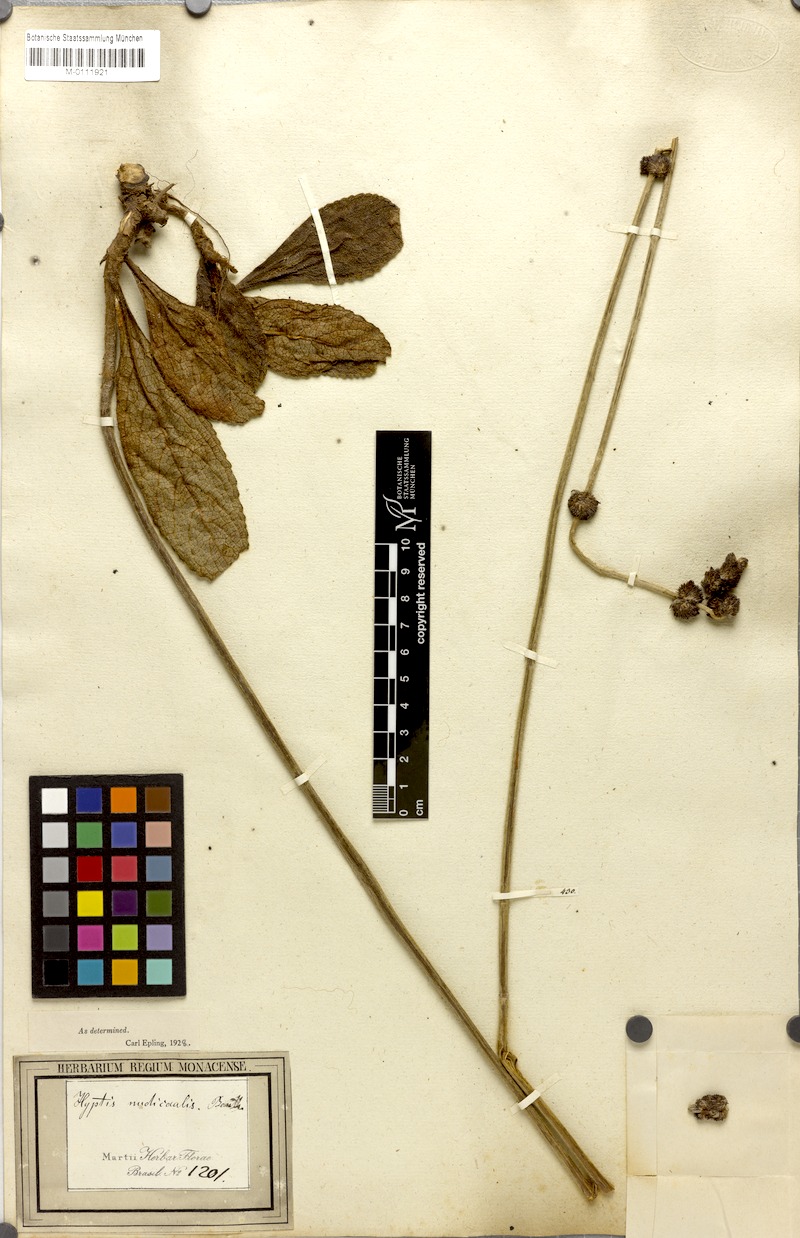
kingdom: Plantae
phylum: Tracheophyta
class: Magnoliopsida
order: Lamiales
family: Lamiaceae
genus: Hyptis
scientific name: Hyptis nudicaulis
